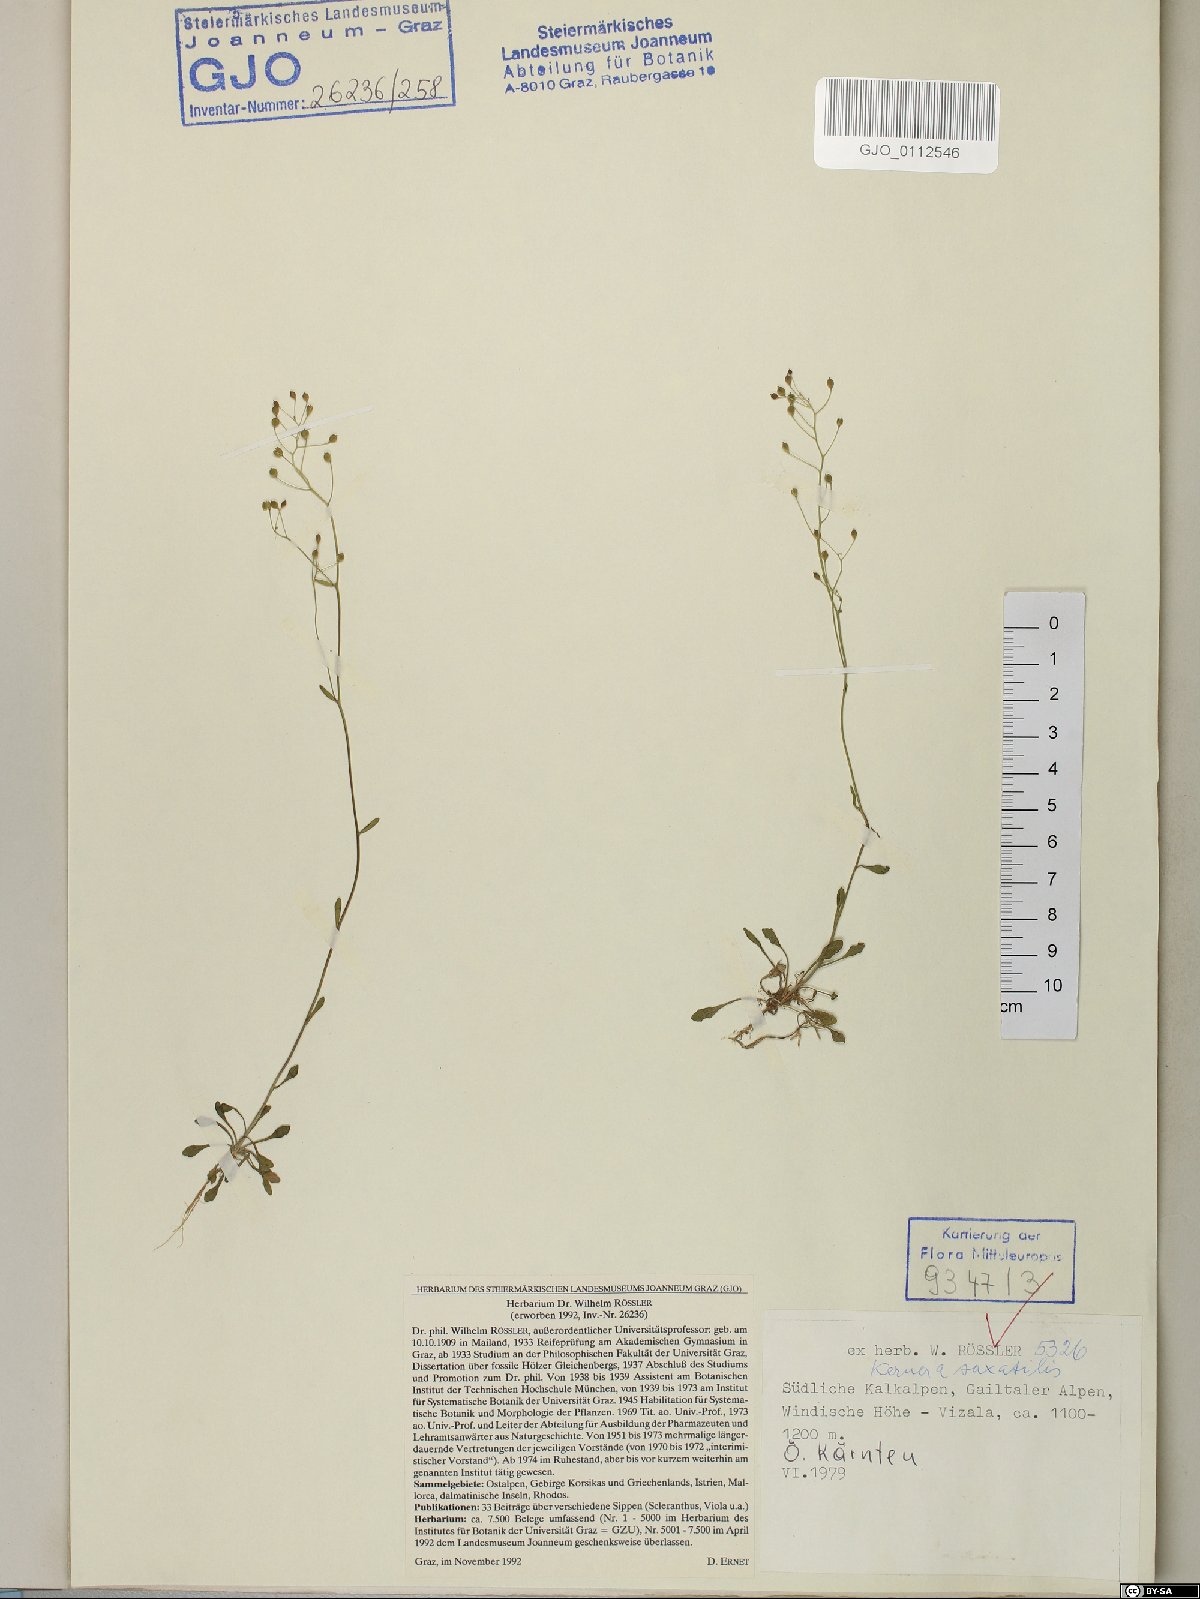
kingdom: Plantae
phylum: Tracheophyta
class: Magnoliopsida
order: Brassicales
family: Brassicaceae
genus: Kernera
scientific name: Kernera saxatilis
